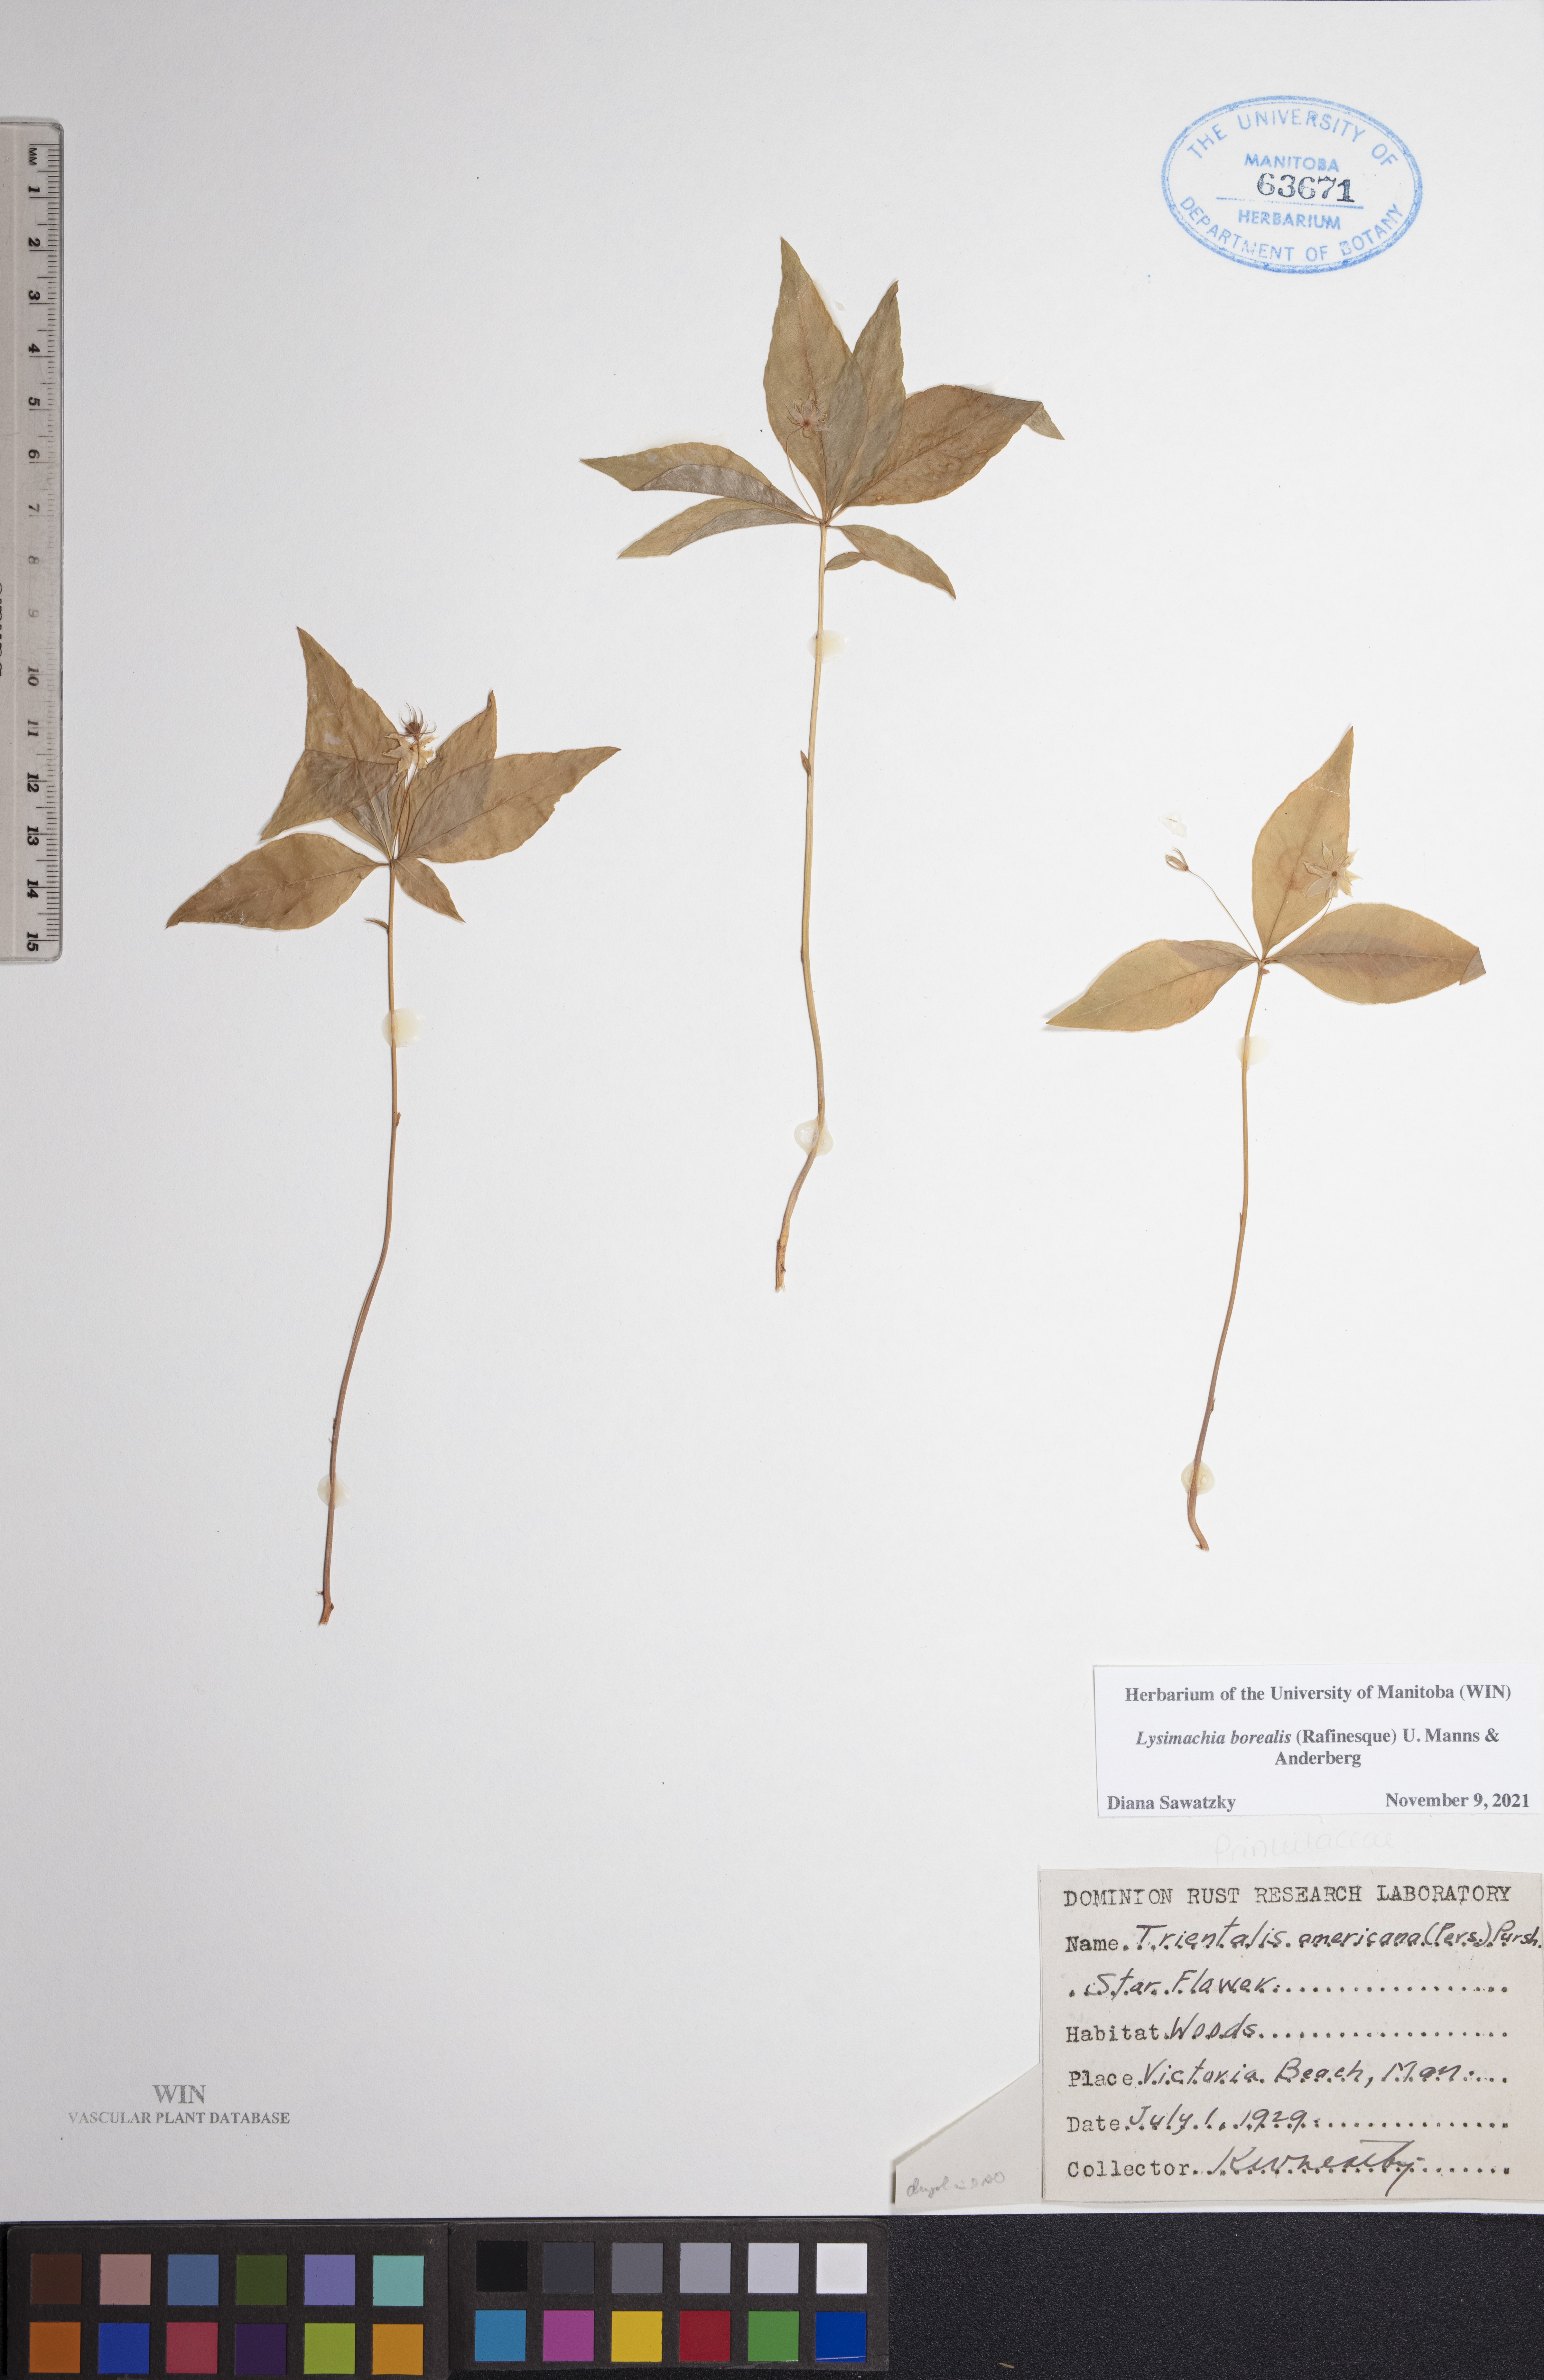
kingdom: Plantae
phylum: Tracheophyta
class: Magnoliopsida
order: Ericales
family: Primulaceae
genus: Lysimachia
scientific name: Lysimachia borealis
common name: American starflower
